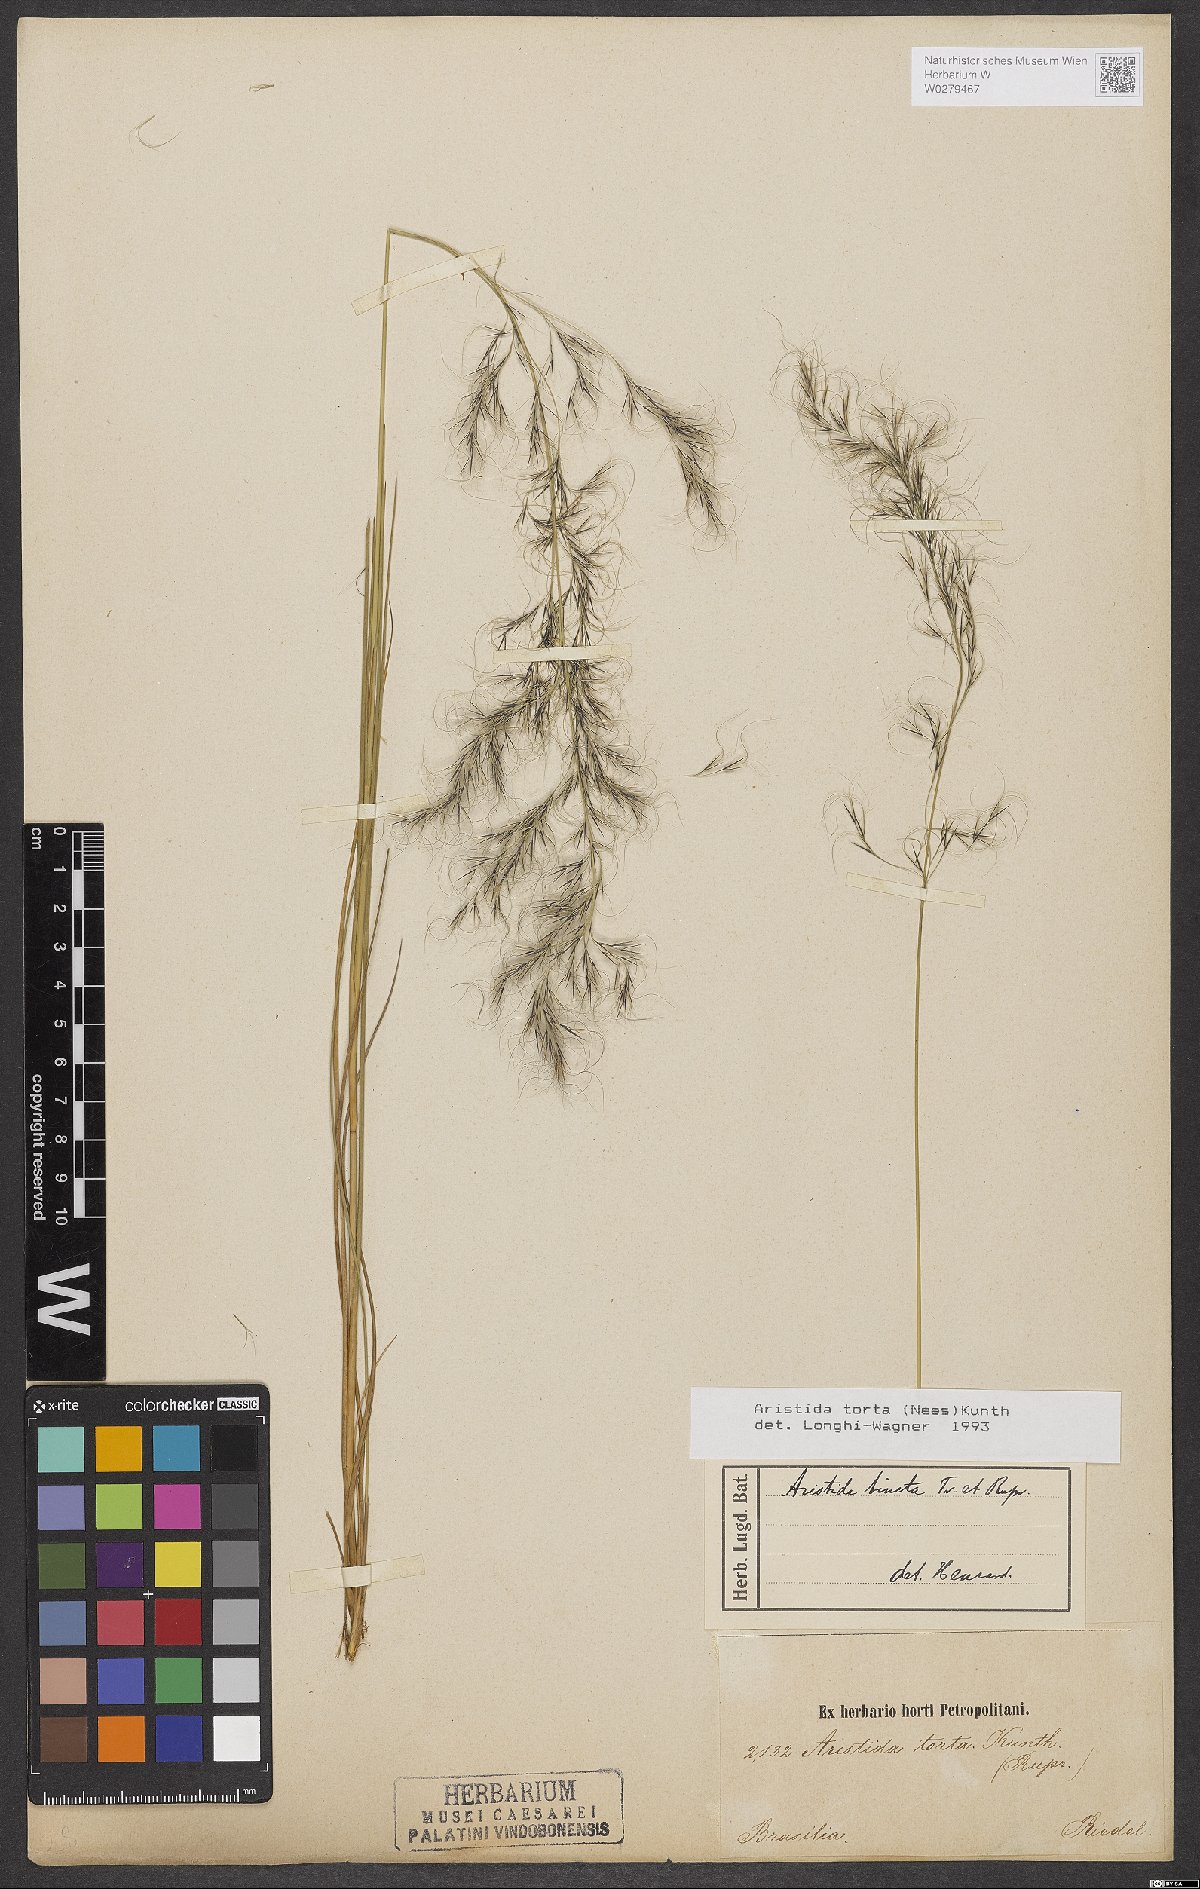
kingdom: Plantae
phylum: Tracheophyta
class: Liliopsida
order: Poales
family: Poaceae
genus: Aristida
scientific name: Aristida torta
